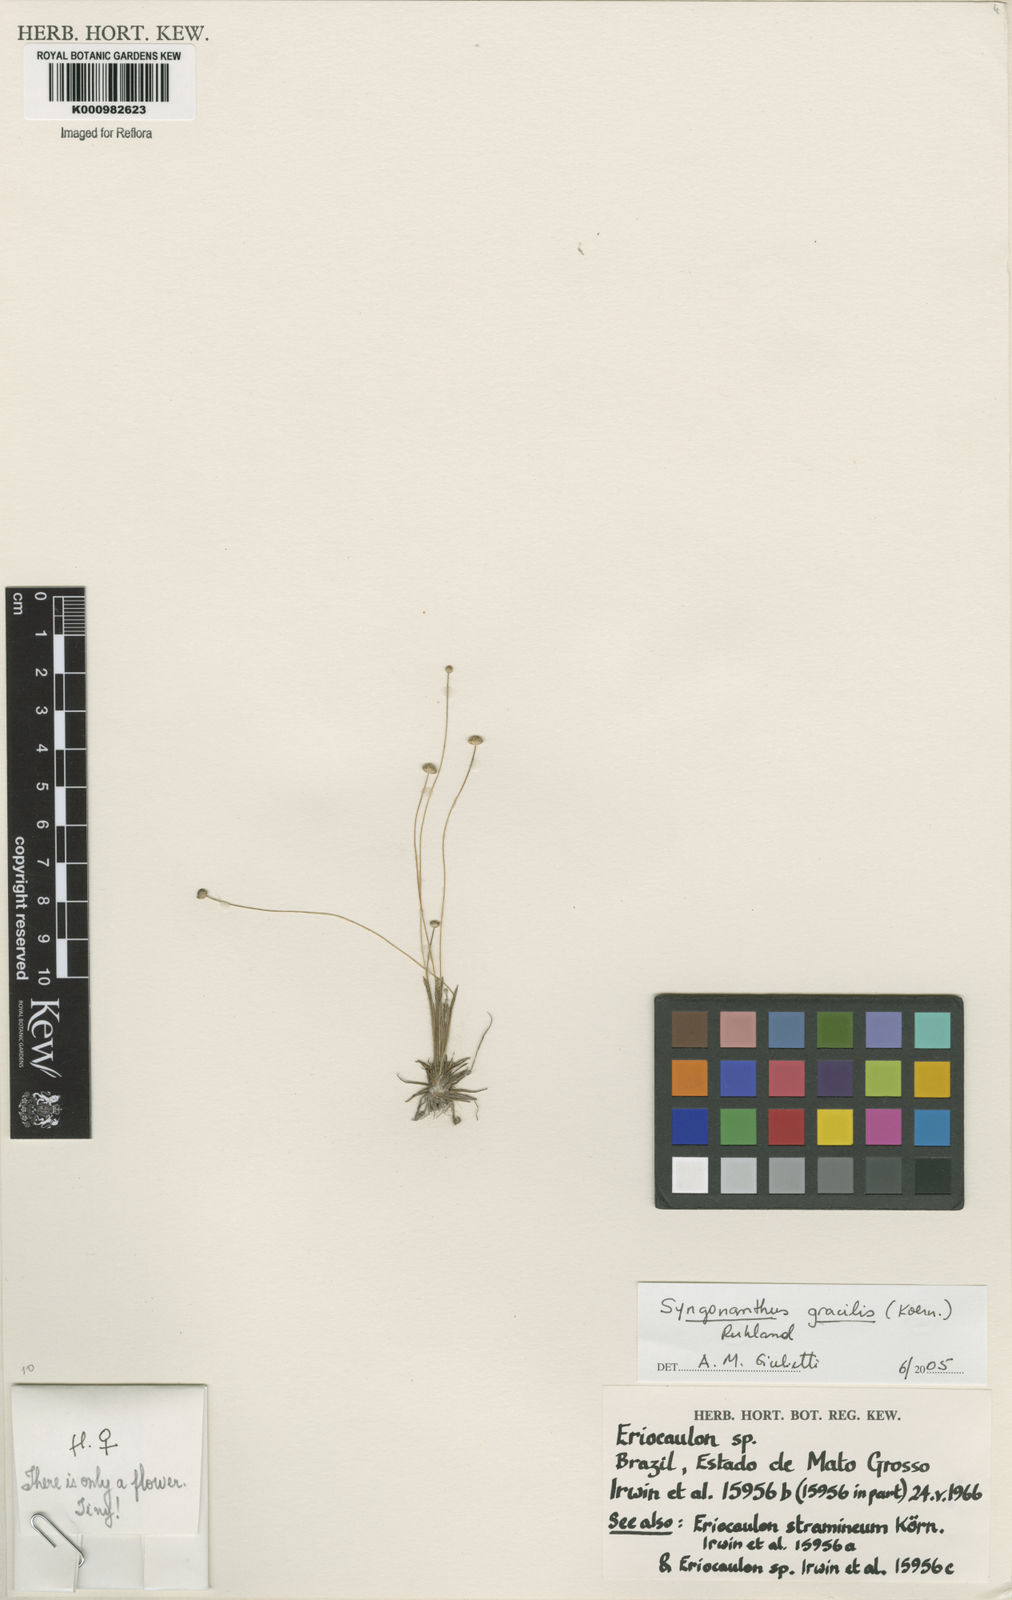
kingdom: Plantae
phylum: Tracheophyta
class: Liliopsida
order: Poales
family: Eriocaulaceae
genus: Syngonanthus
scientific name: Syngonanthus gracilis
